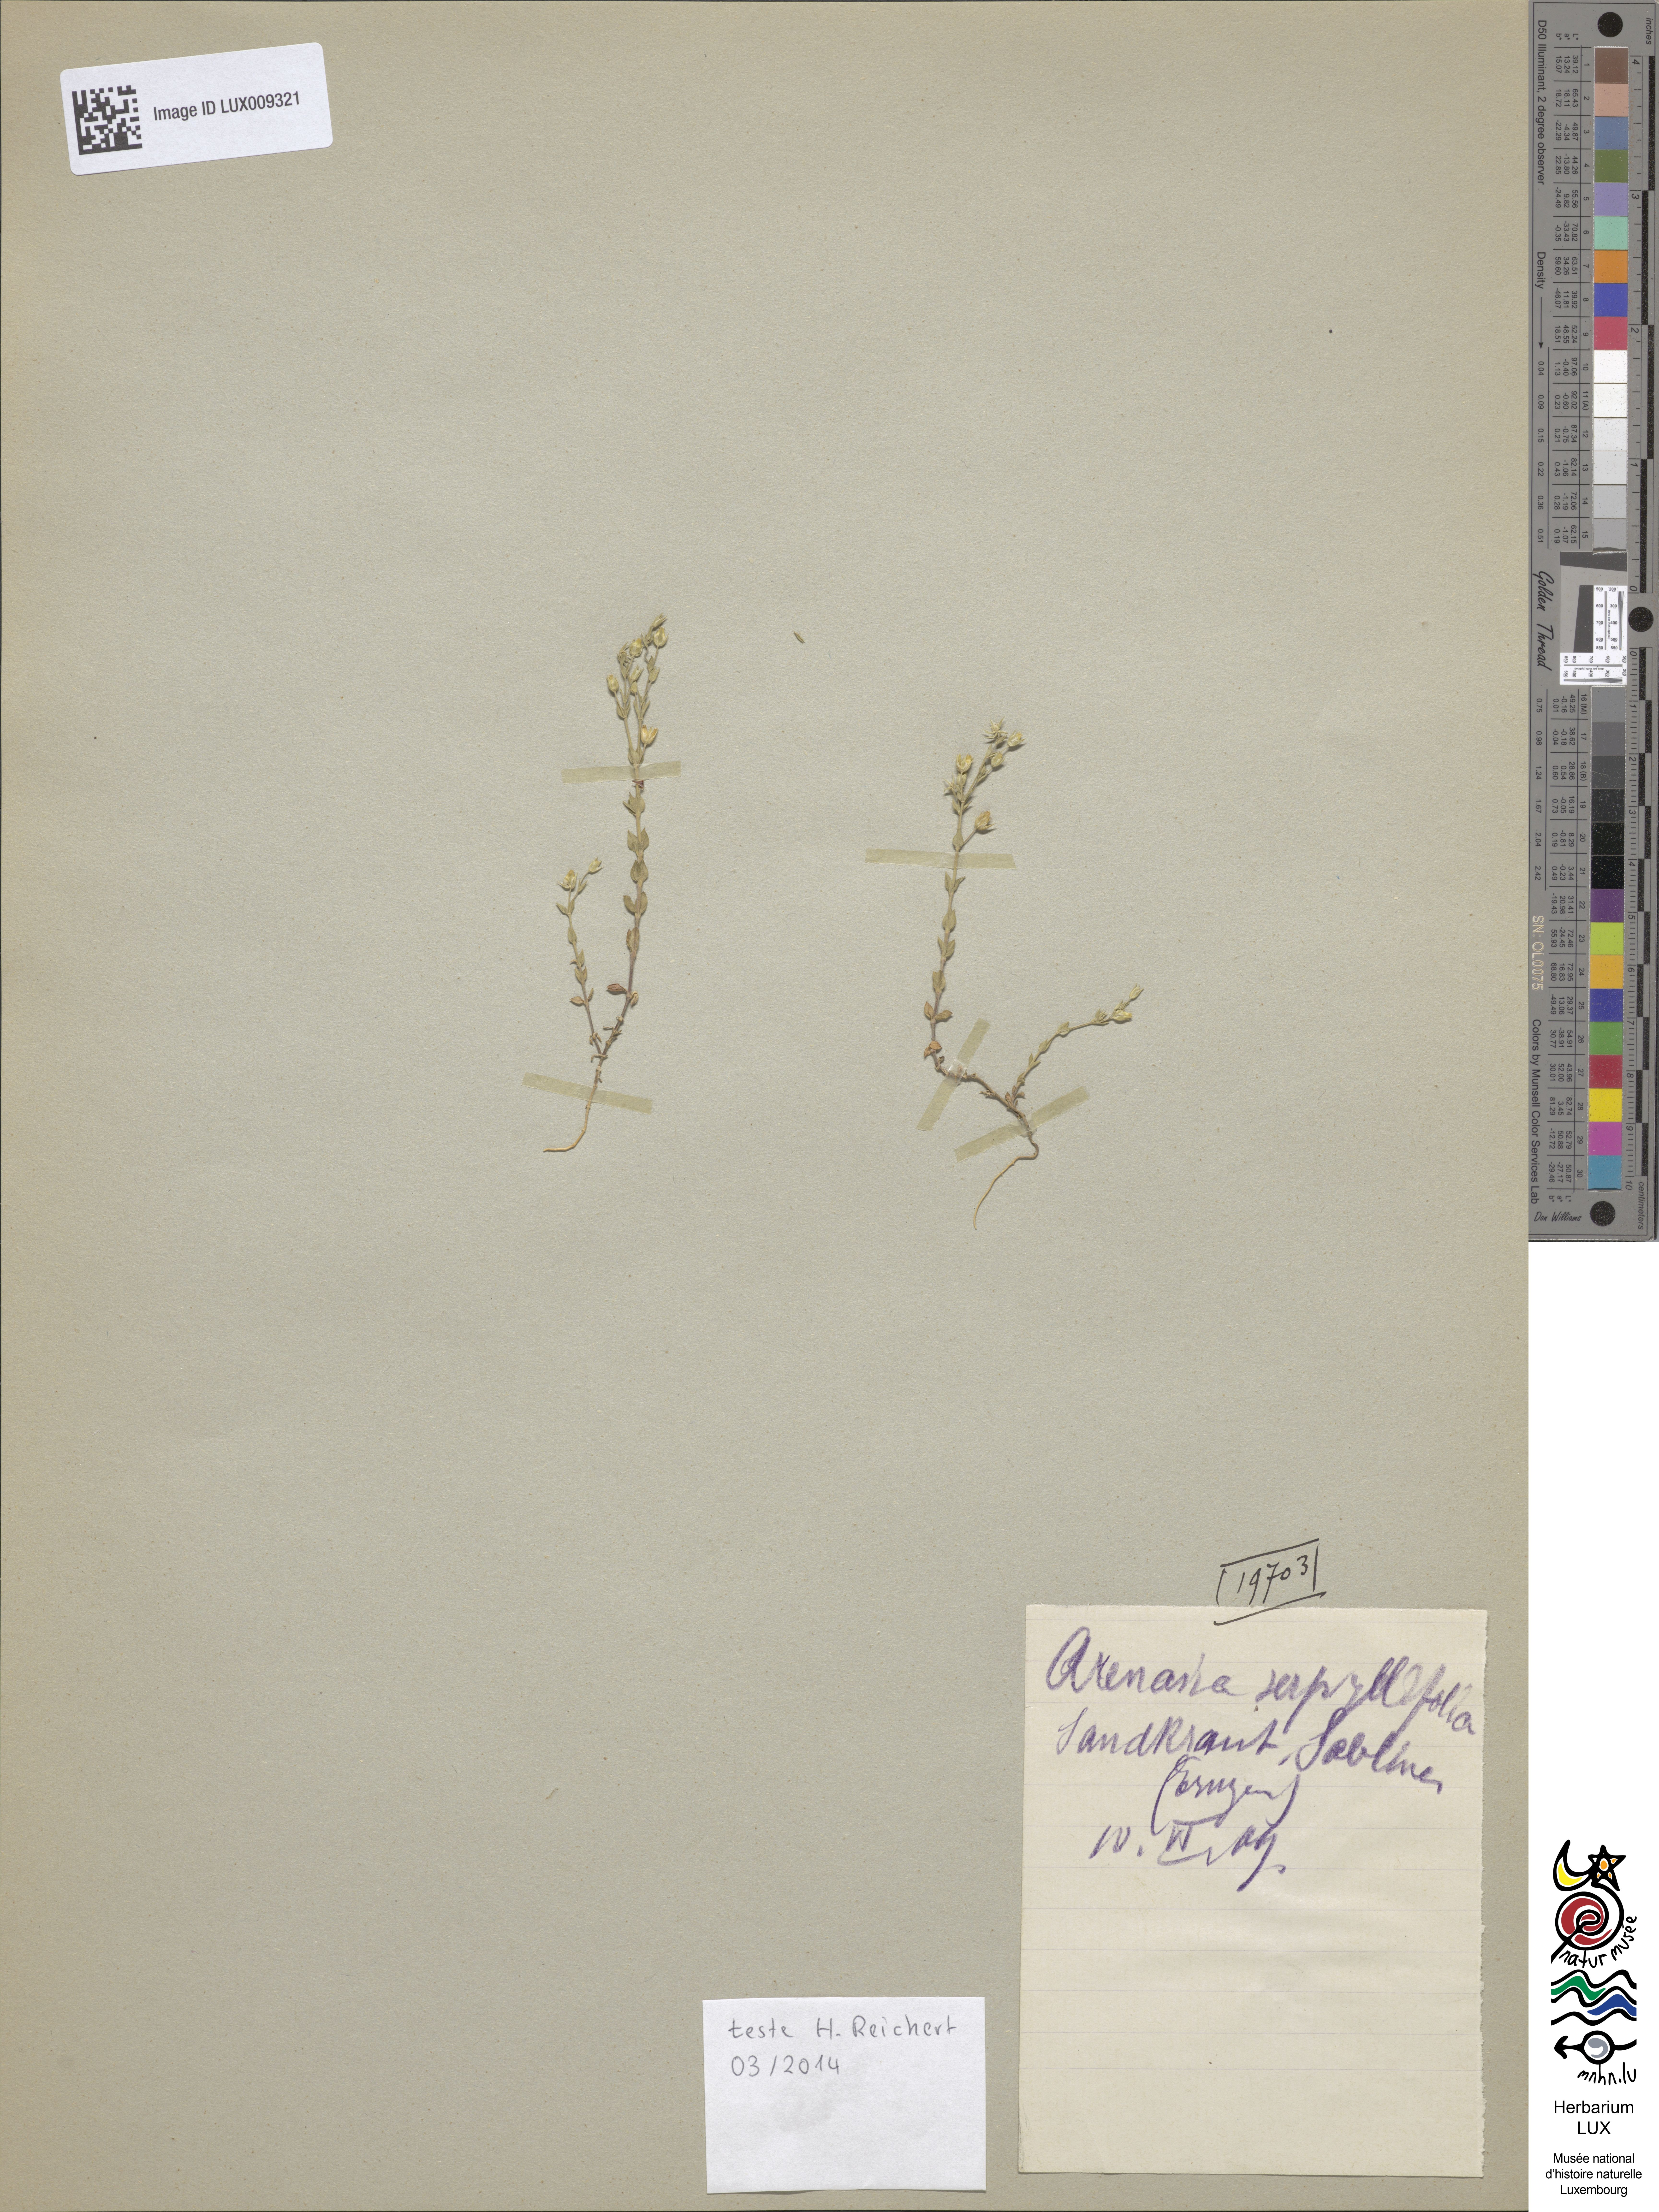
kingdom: Plantae
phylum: Tracheophyta
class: Magnoliopsida
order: Caryophyllales
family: Caryophyllaceae
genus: Arenaria
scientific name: Arenaria serpyllifolia
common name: Thyme-leaved sandwort
